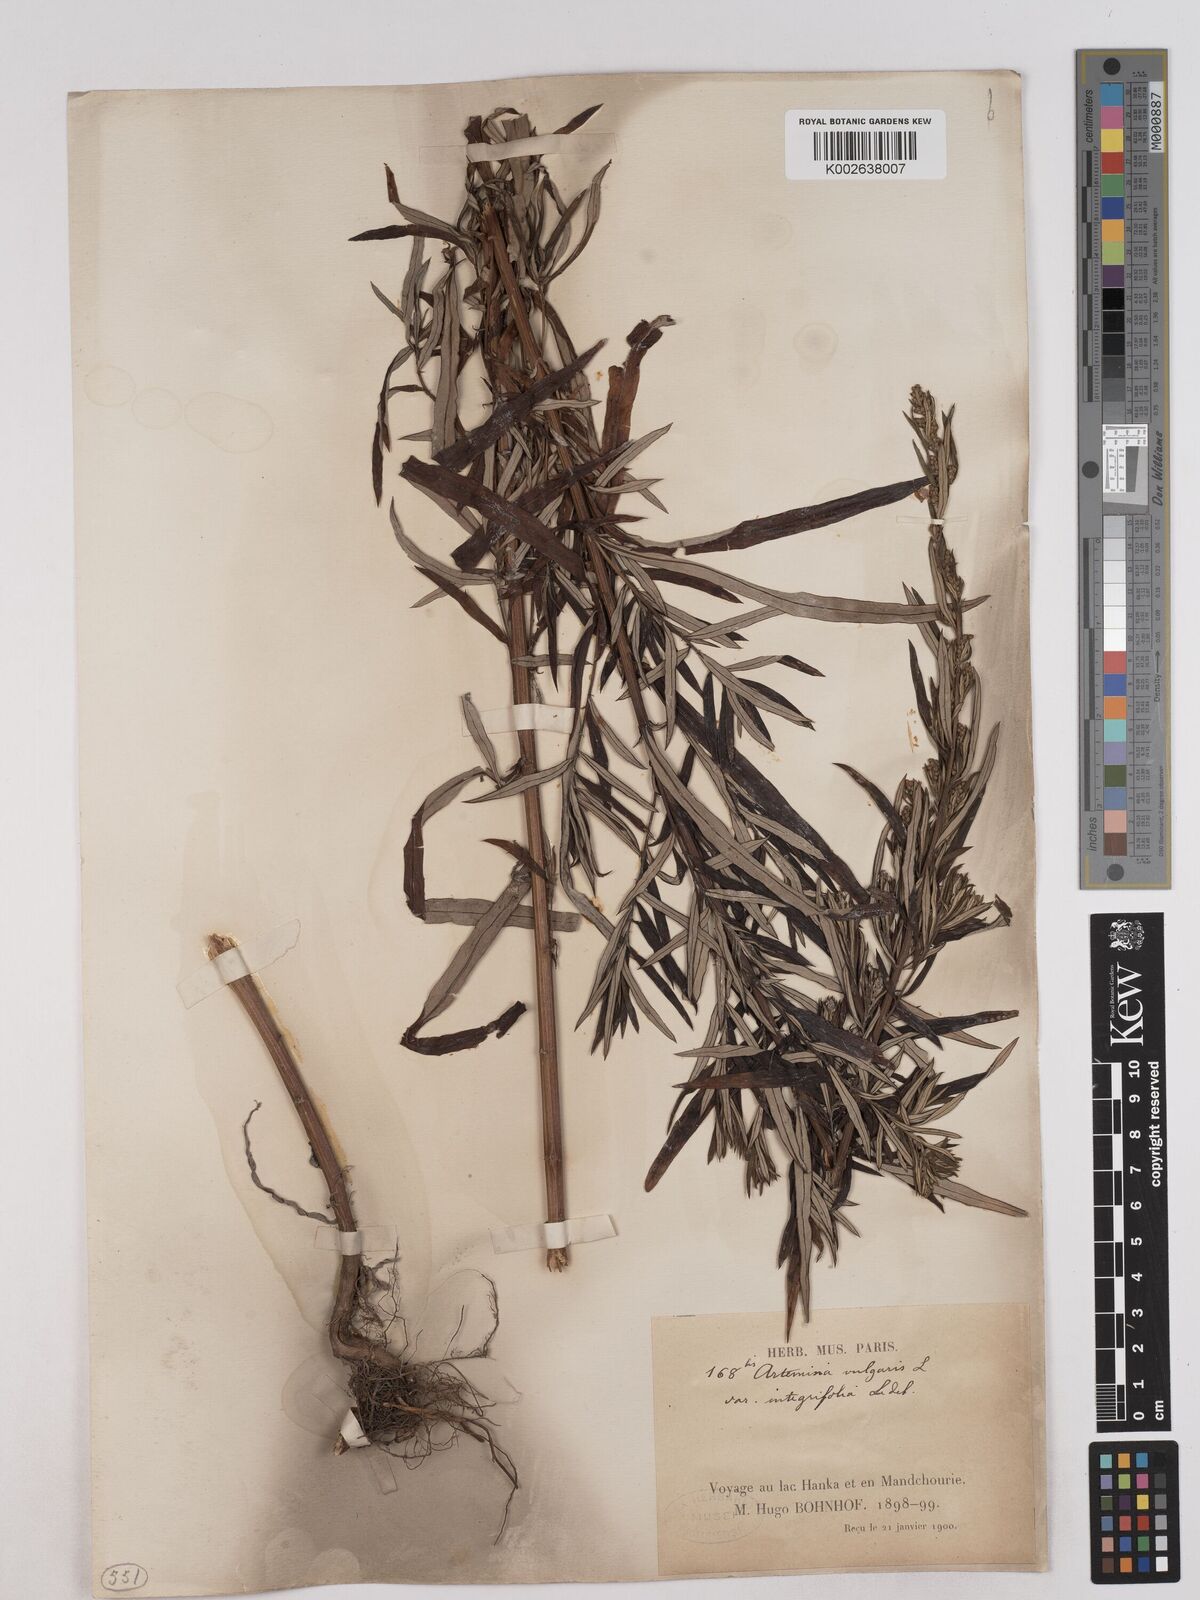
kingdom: Plantae
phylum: Tracheophyta
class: Magnoliopsida
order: Asterales
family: Asteraceae
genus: Artemisia
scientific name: Artemisia integrifolia
